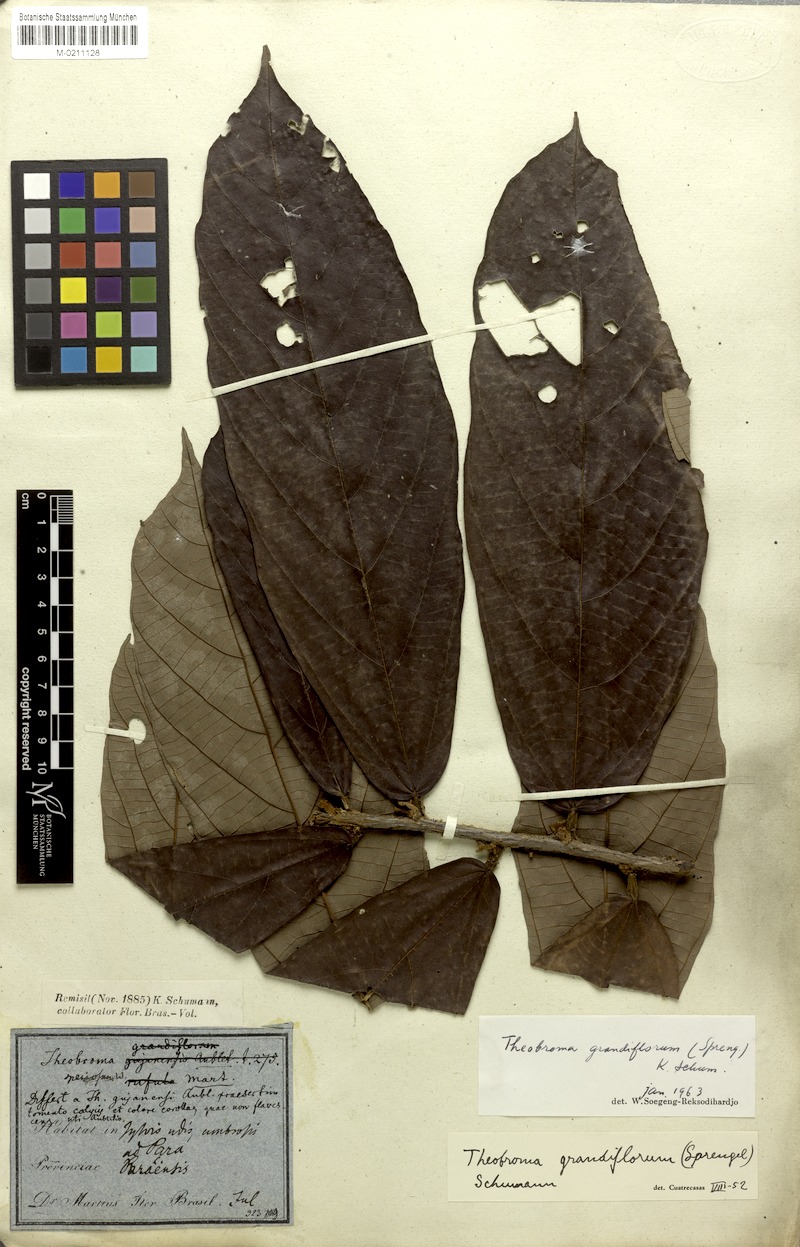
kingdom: Plantae
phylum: Tracheophyta
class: Magnoliopsida
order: Malvales
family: Malvaceae
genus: Theobroma
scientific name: Theobroma grandiflorum
